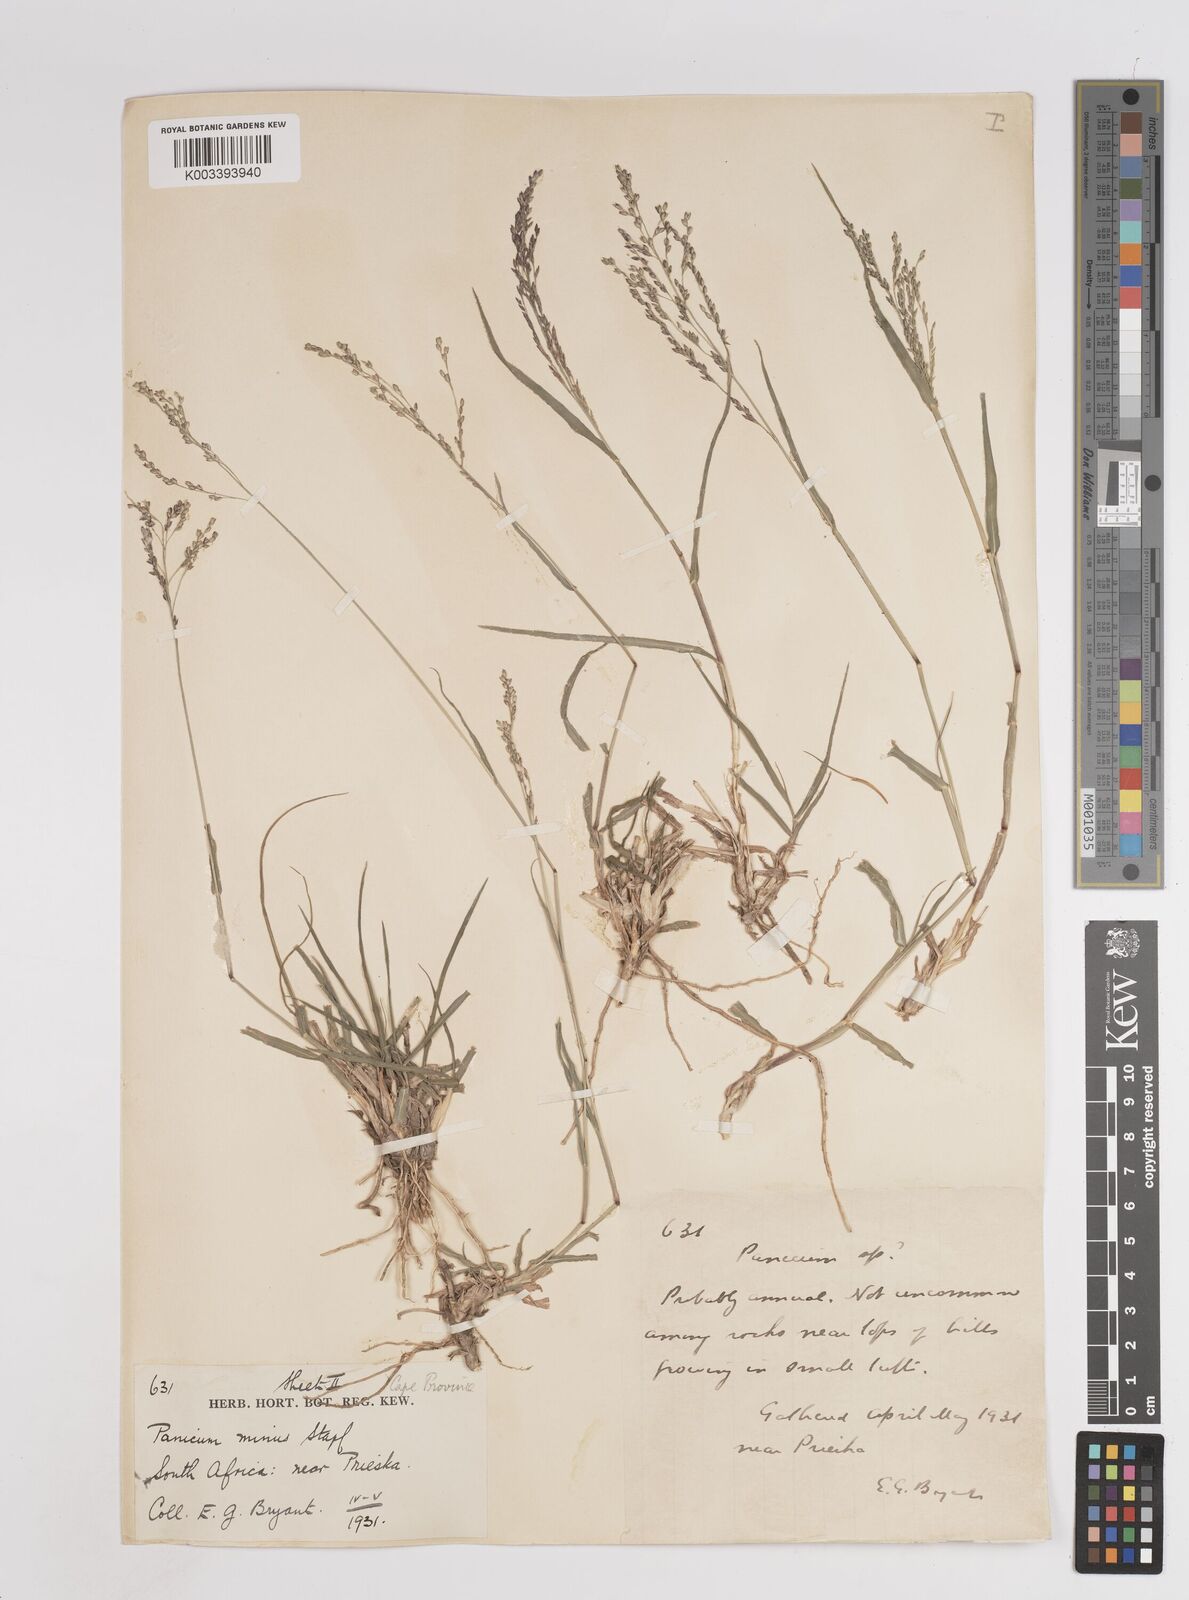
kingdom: Plantae
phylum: Tracheophyta
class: Liliopsida
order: Poales
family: Poaceae
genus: Panicum
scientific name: Panicum coloratum
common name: Kleingrass
